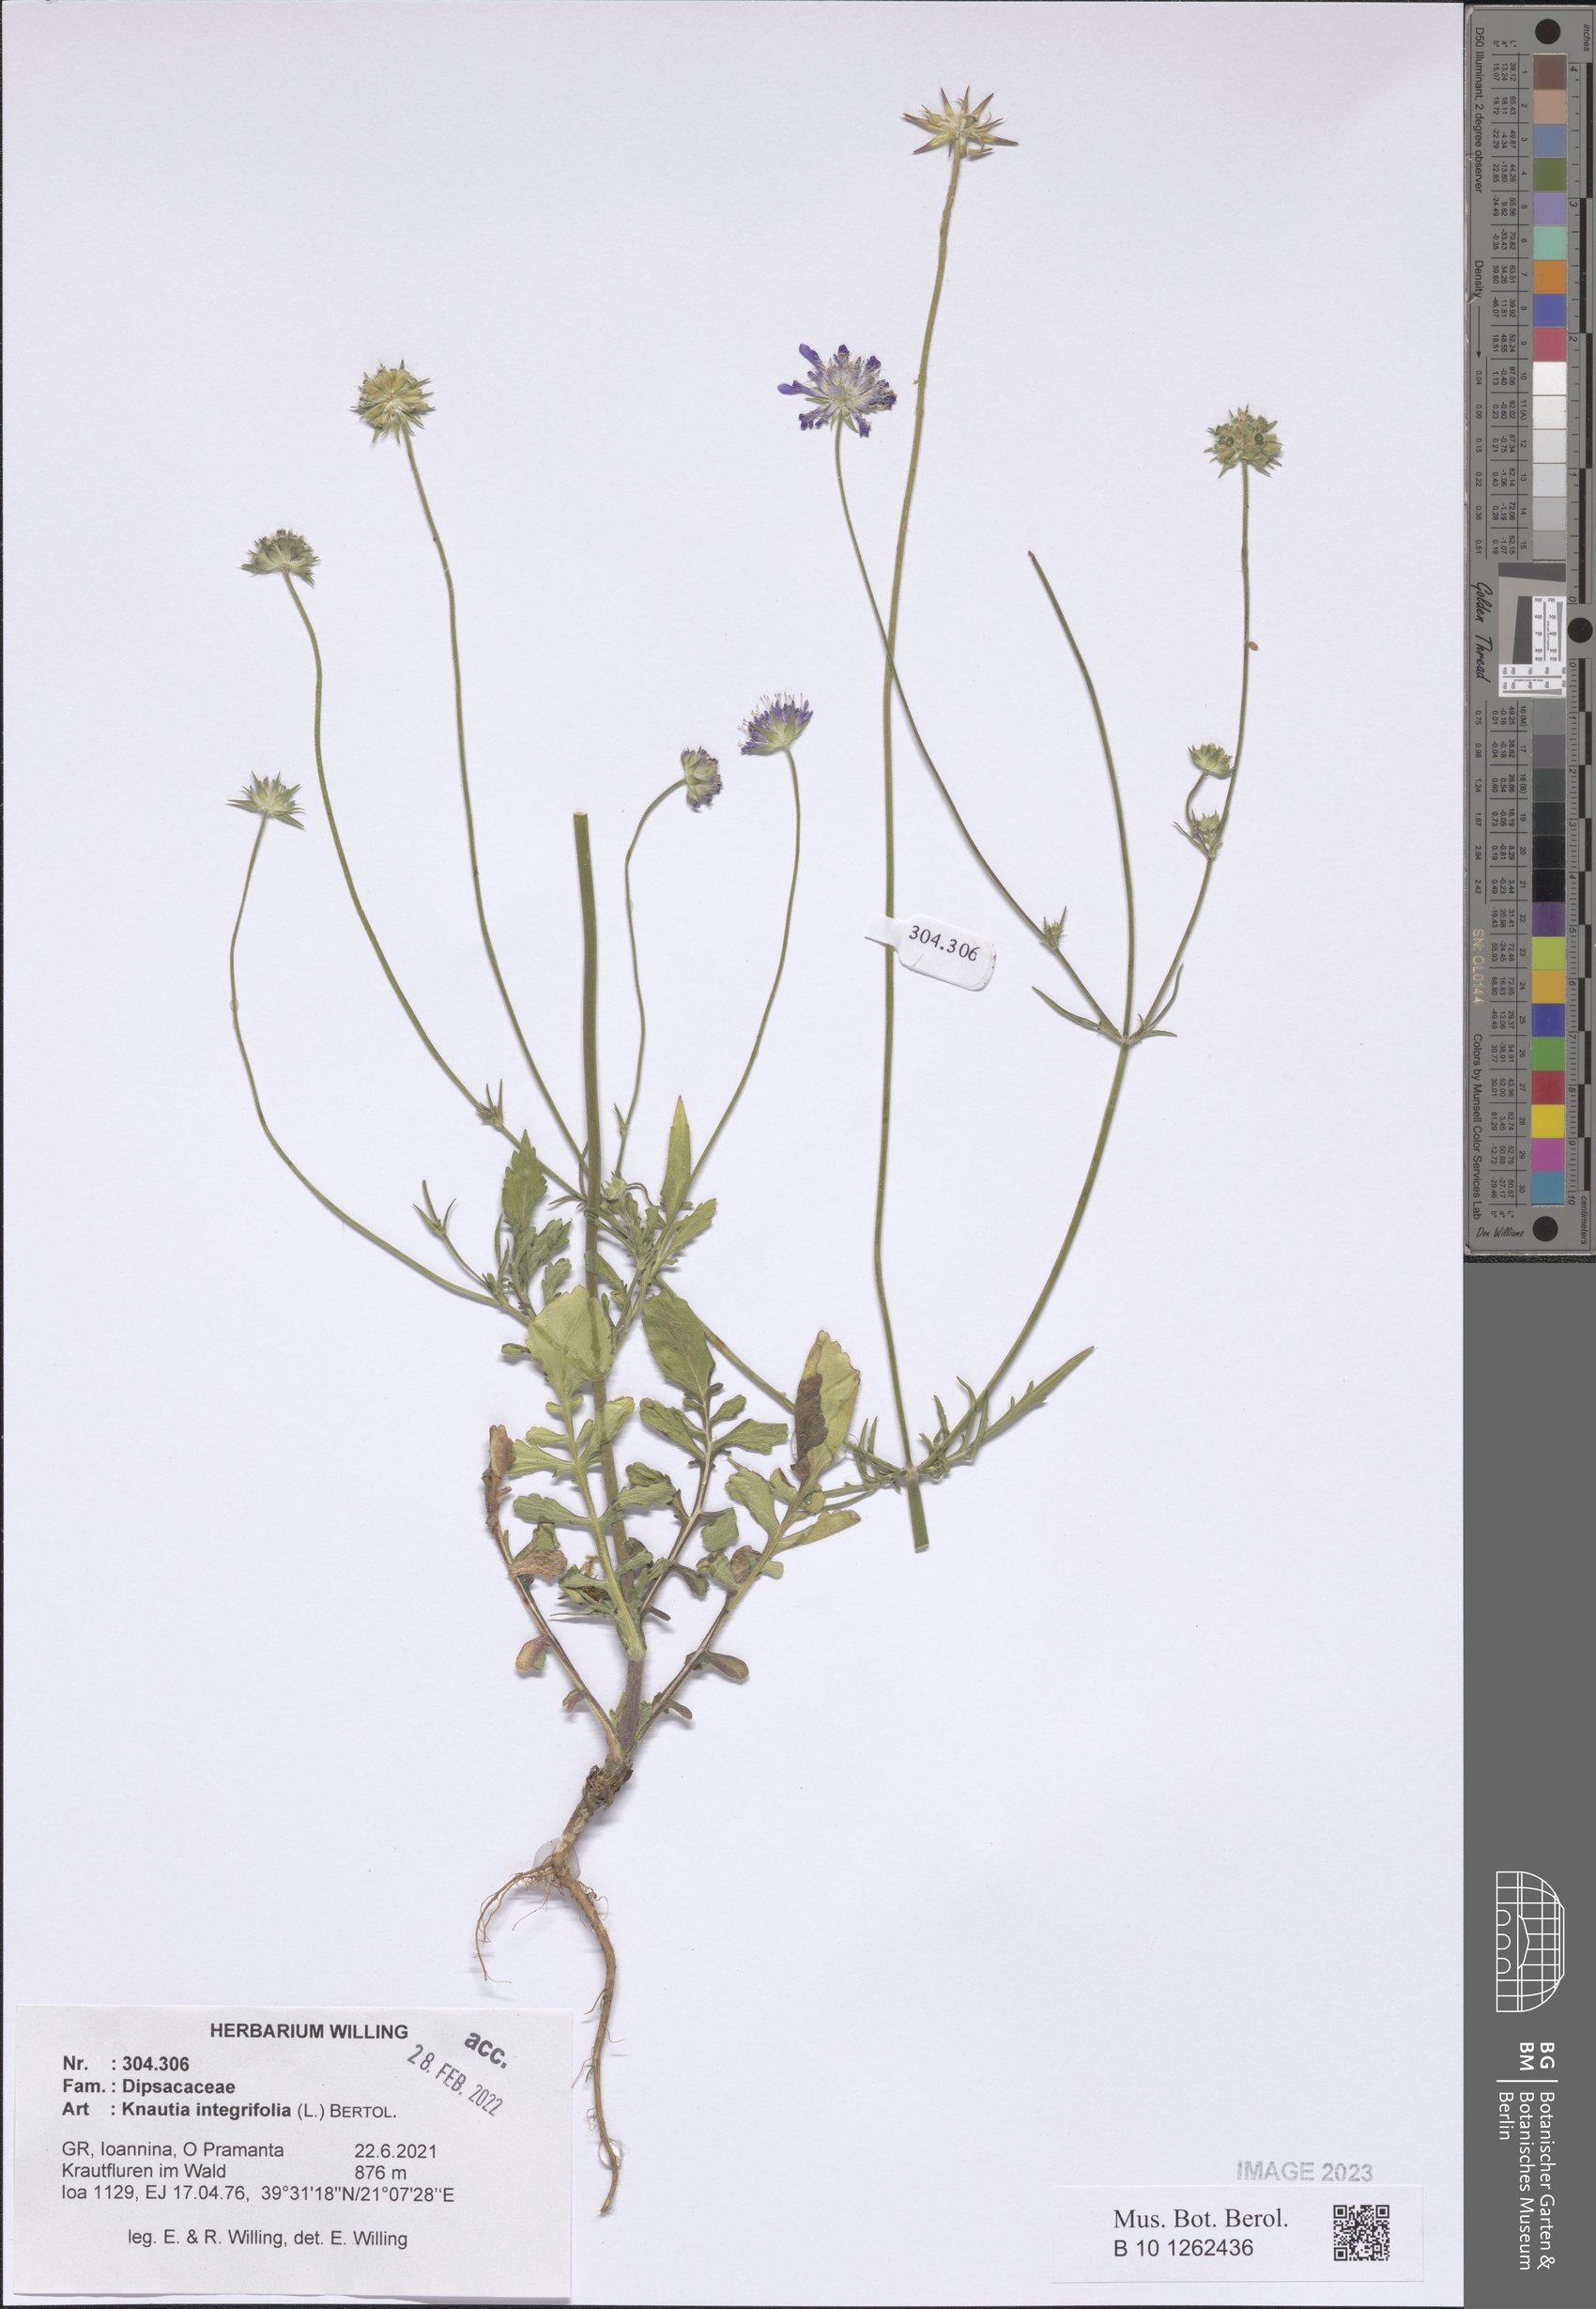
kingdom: Plantae
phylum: Tracheophyta
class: Magnoliopsida
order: Dipsacales
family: Caprifoliaceae
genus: Knautia
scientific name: Knautia integrifolia
